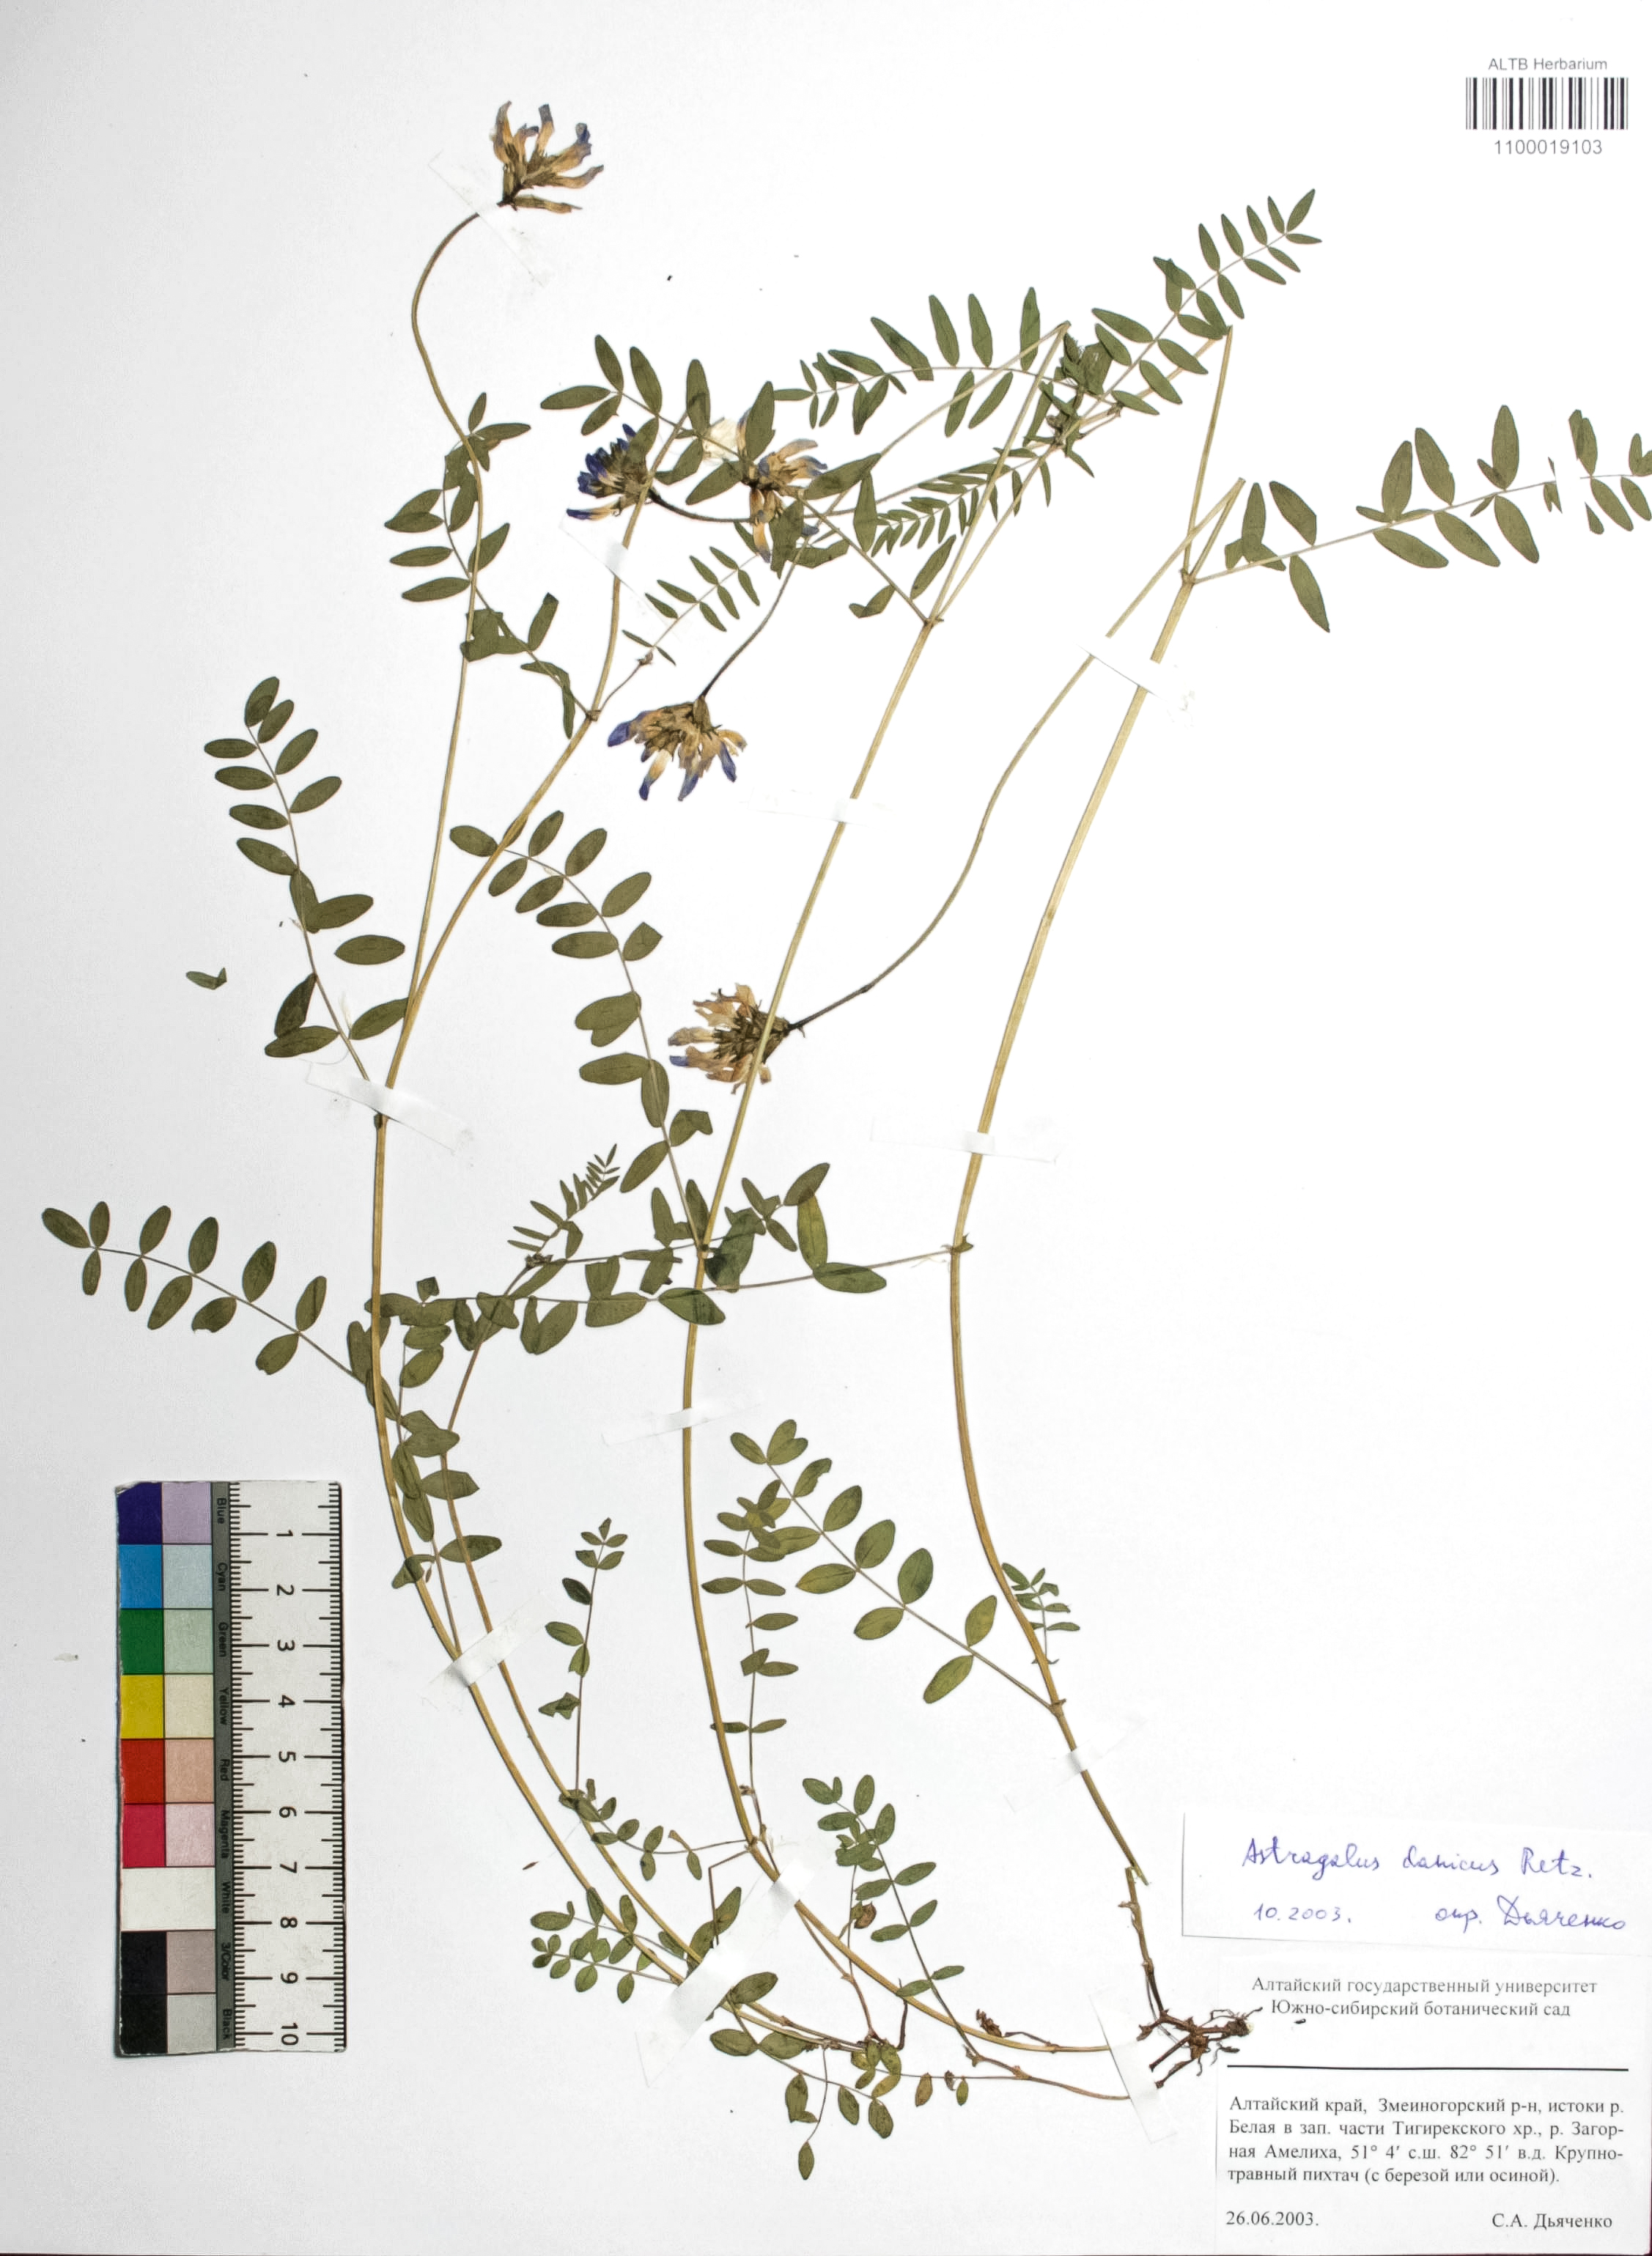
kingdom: Plantae
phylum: Tracheophyta
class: Magnoliopsida
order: Fabales
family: Fabaceae
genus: Astragalus
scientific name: Astragalus danicus
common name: Purple milk-vetch
